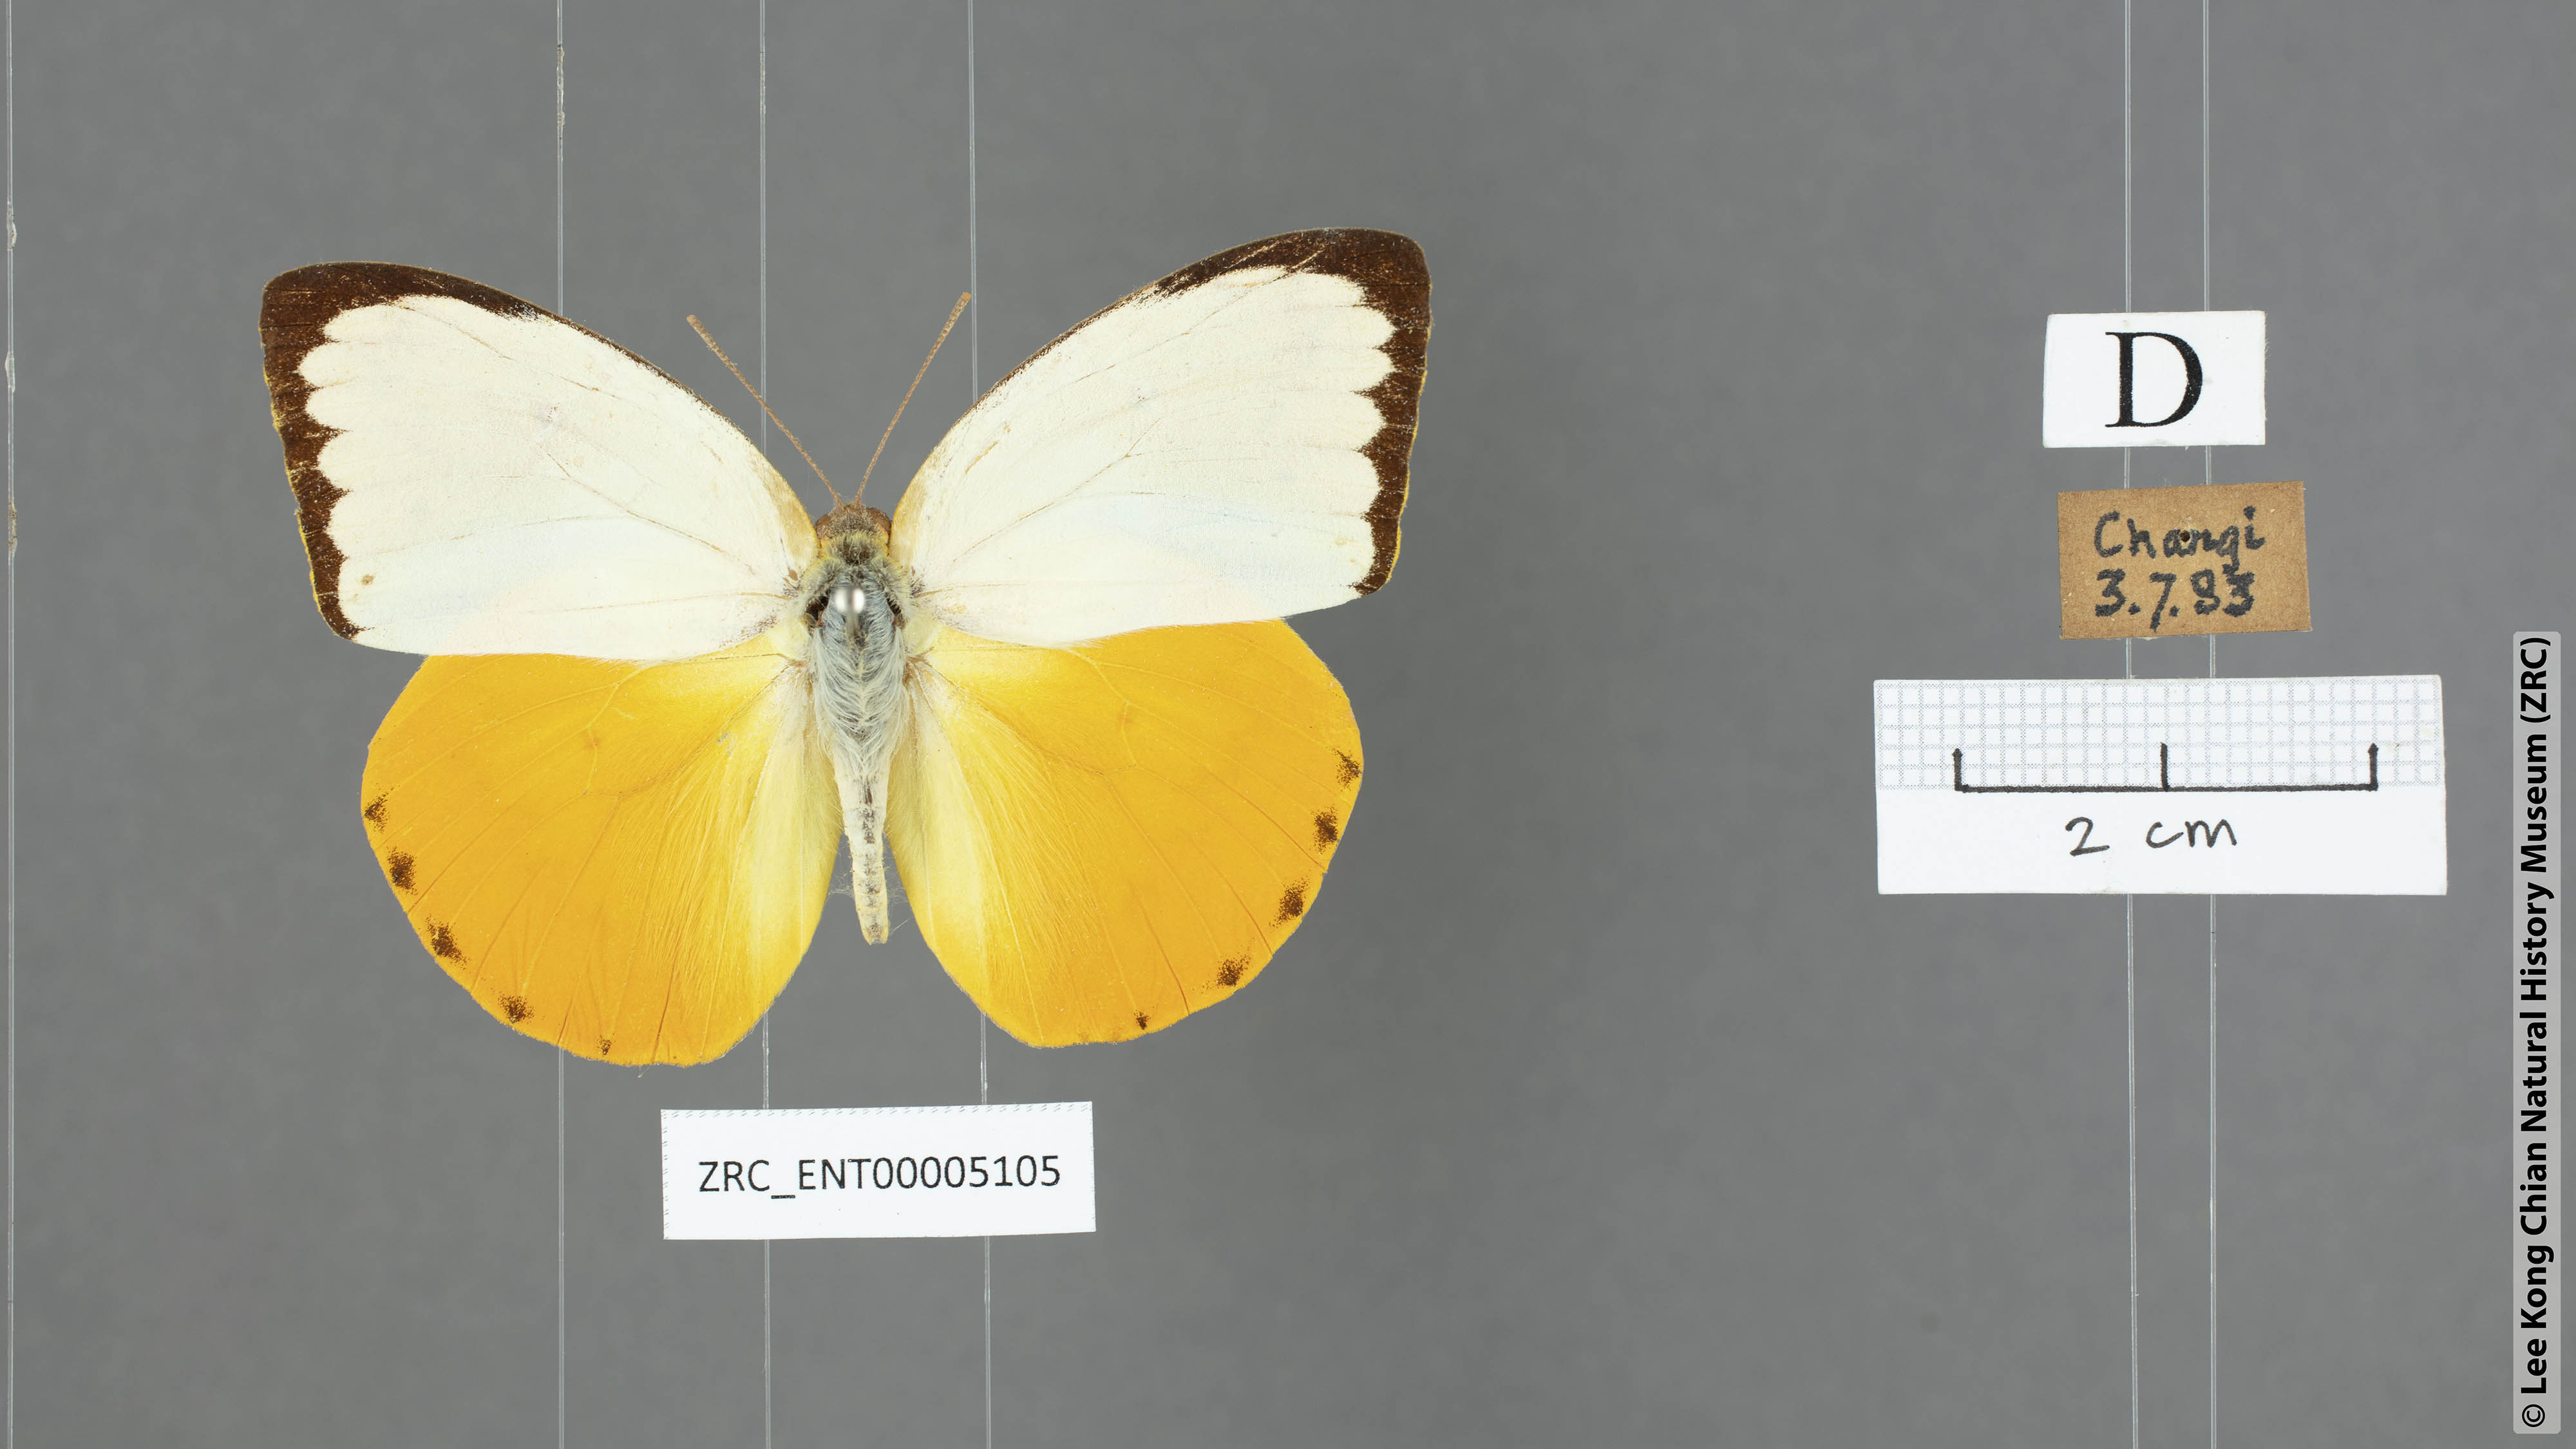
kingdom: Animalia
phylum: Arthropoda
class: Insecta
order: Lepidoptera
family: Pieridae
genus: Catopsilia
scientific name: Catopsilia scylla
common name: Orange emigrant
